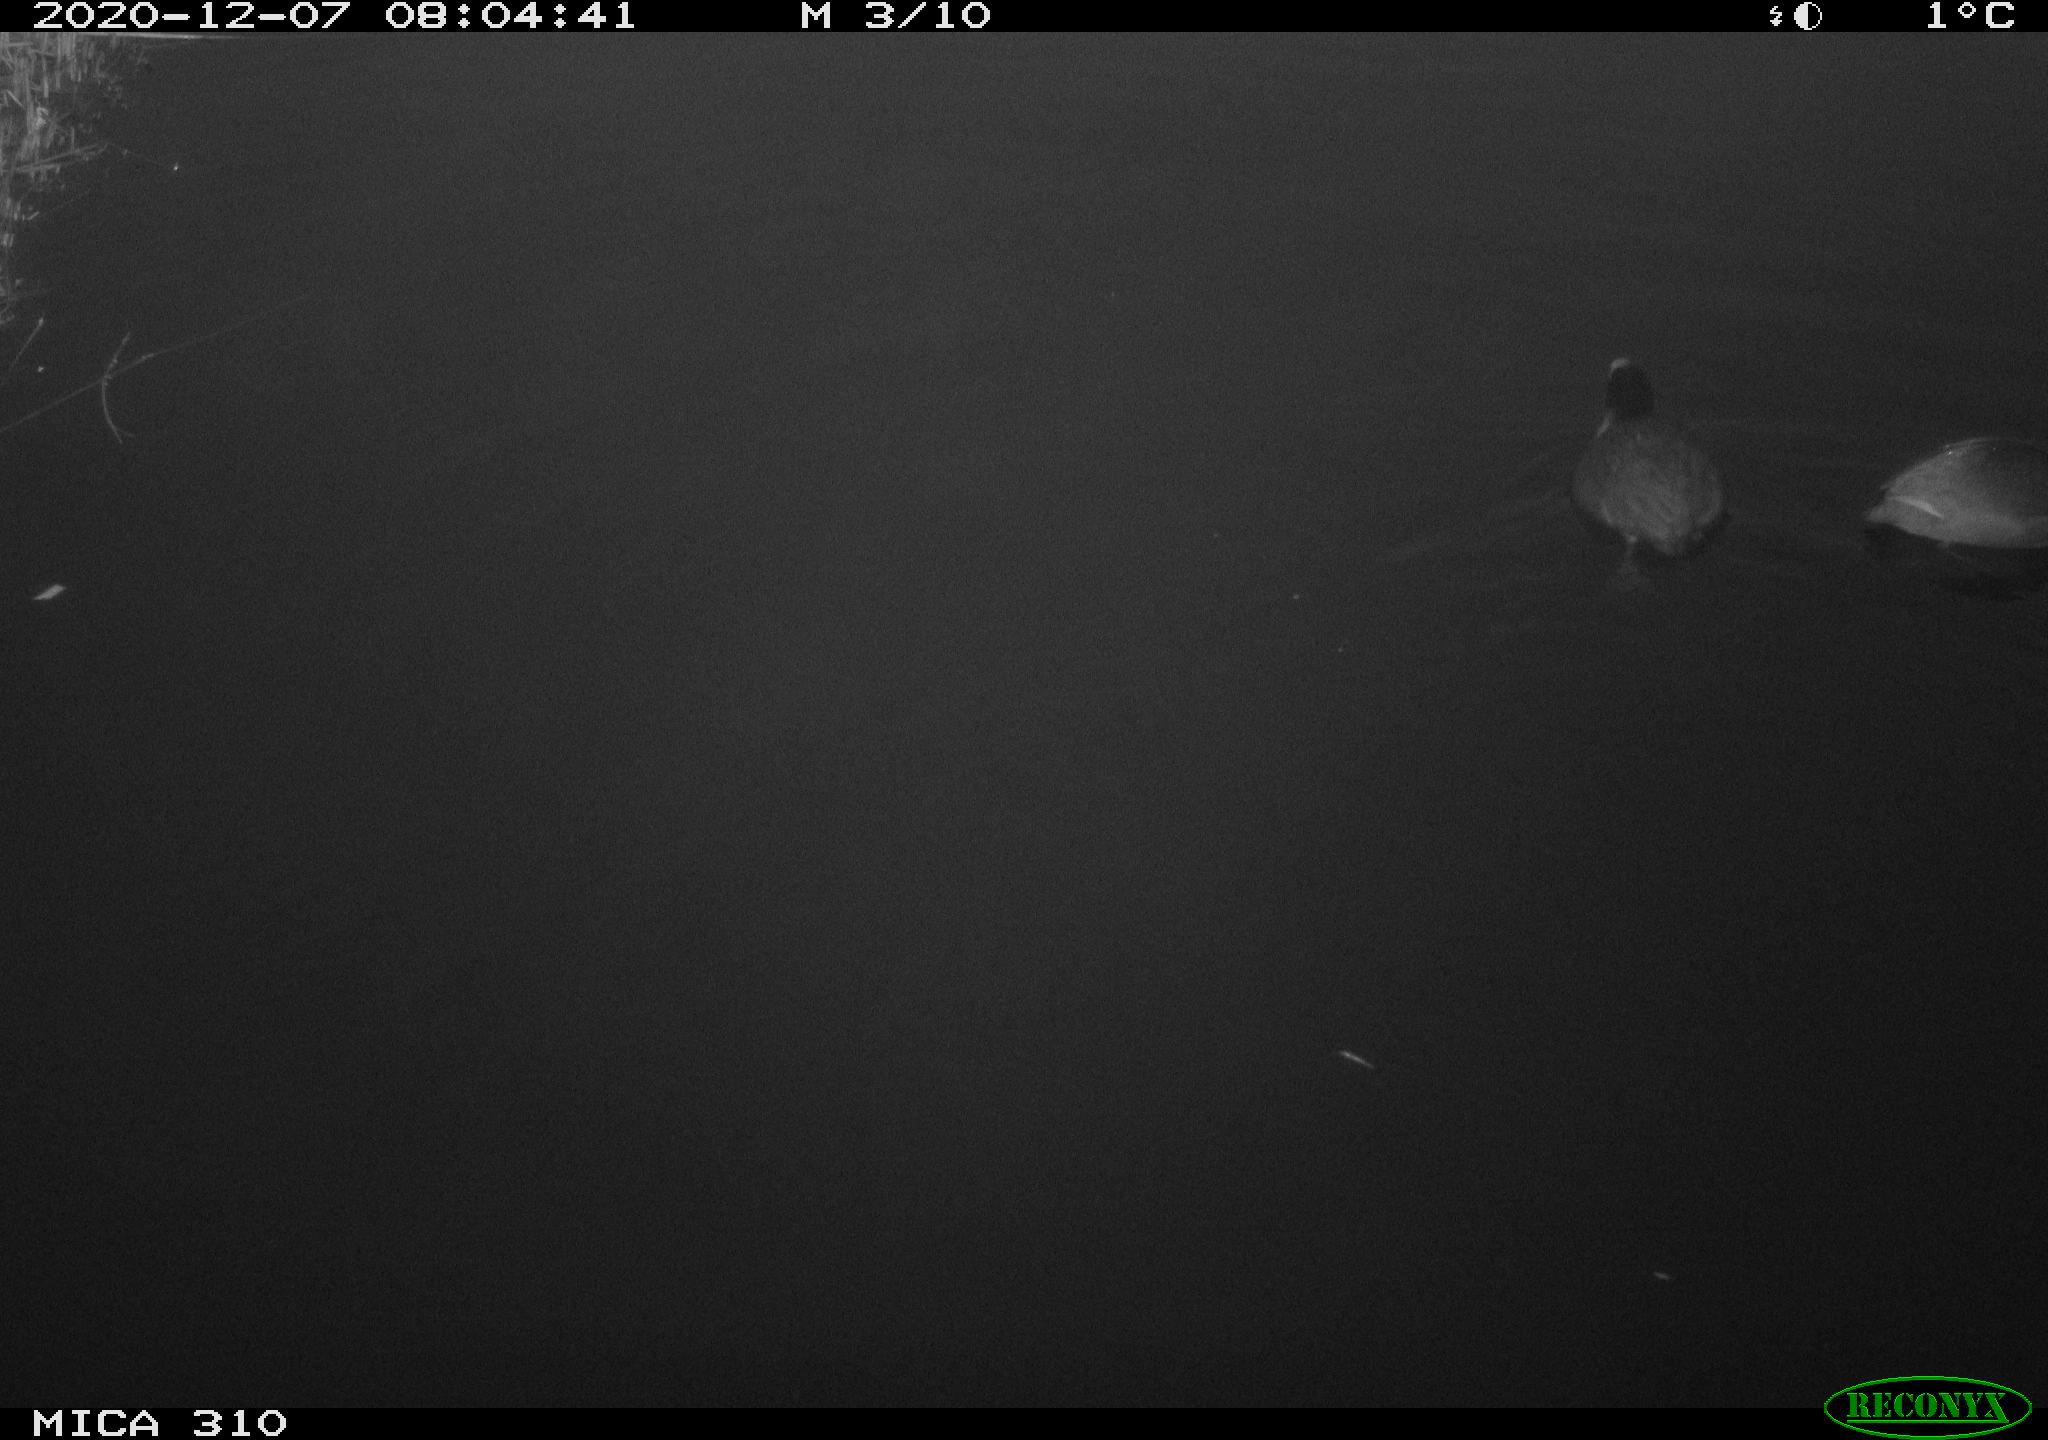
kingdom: Animalia
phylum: Chordata
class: Aves
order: Gruiformes
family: Rallidae
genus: Fulica
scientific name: Fulica atra
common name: Eurasian coot
